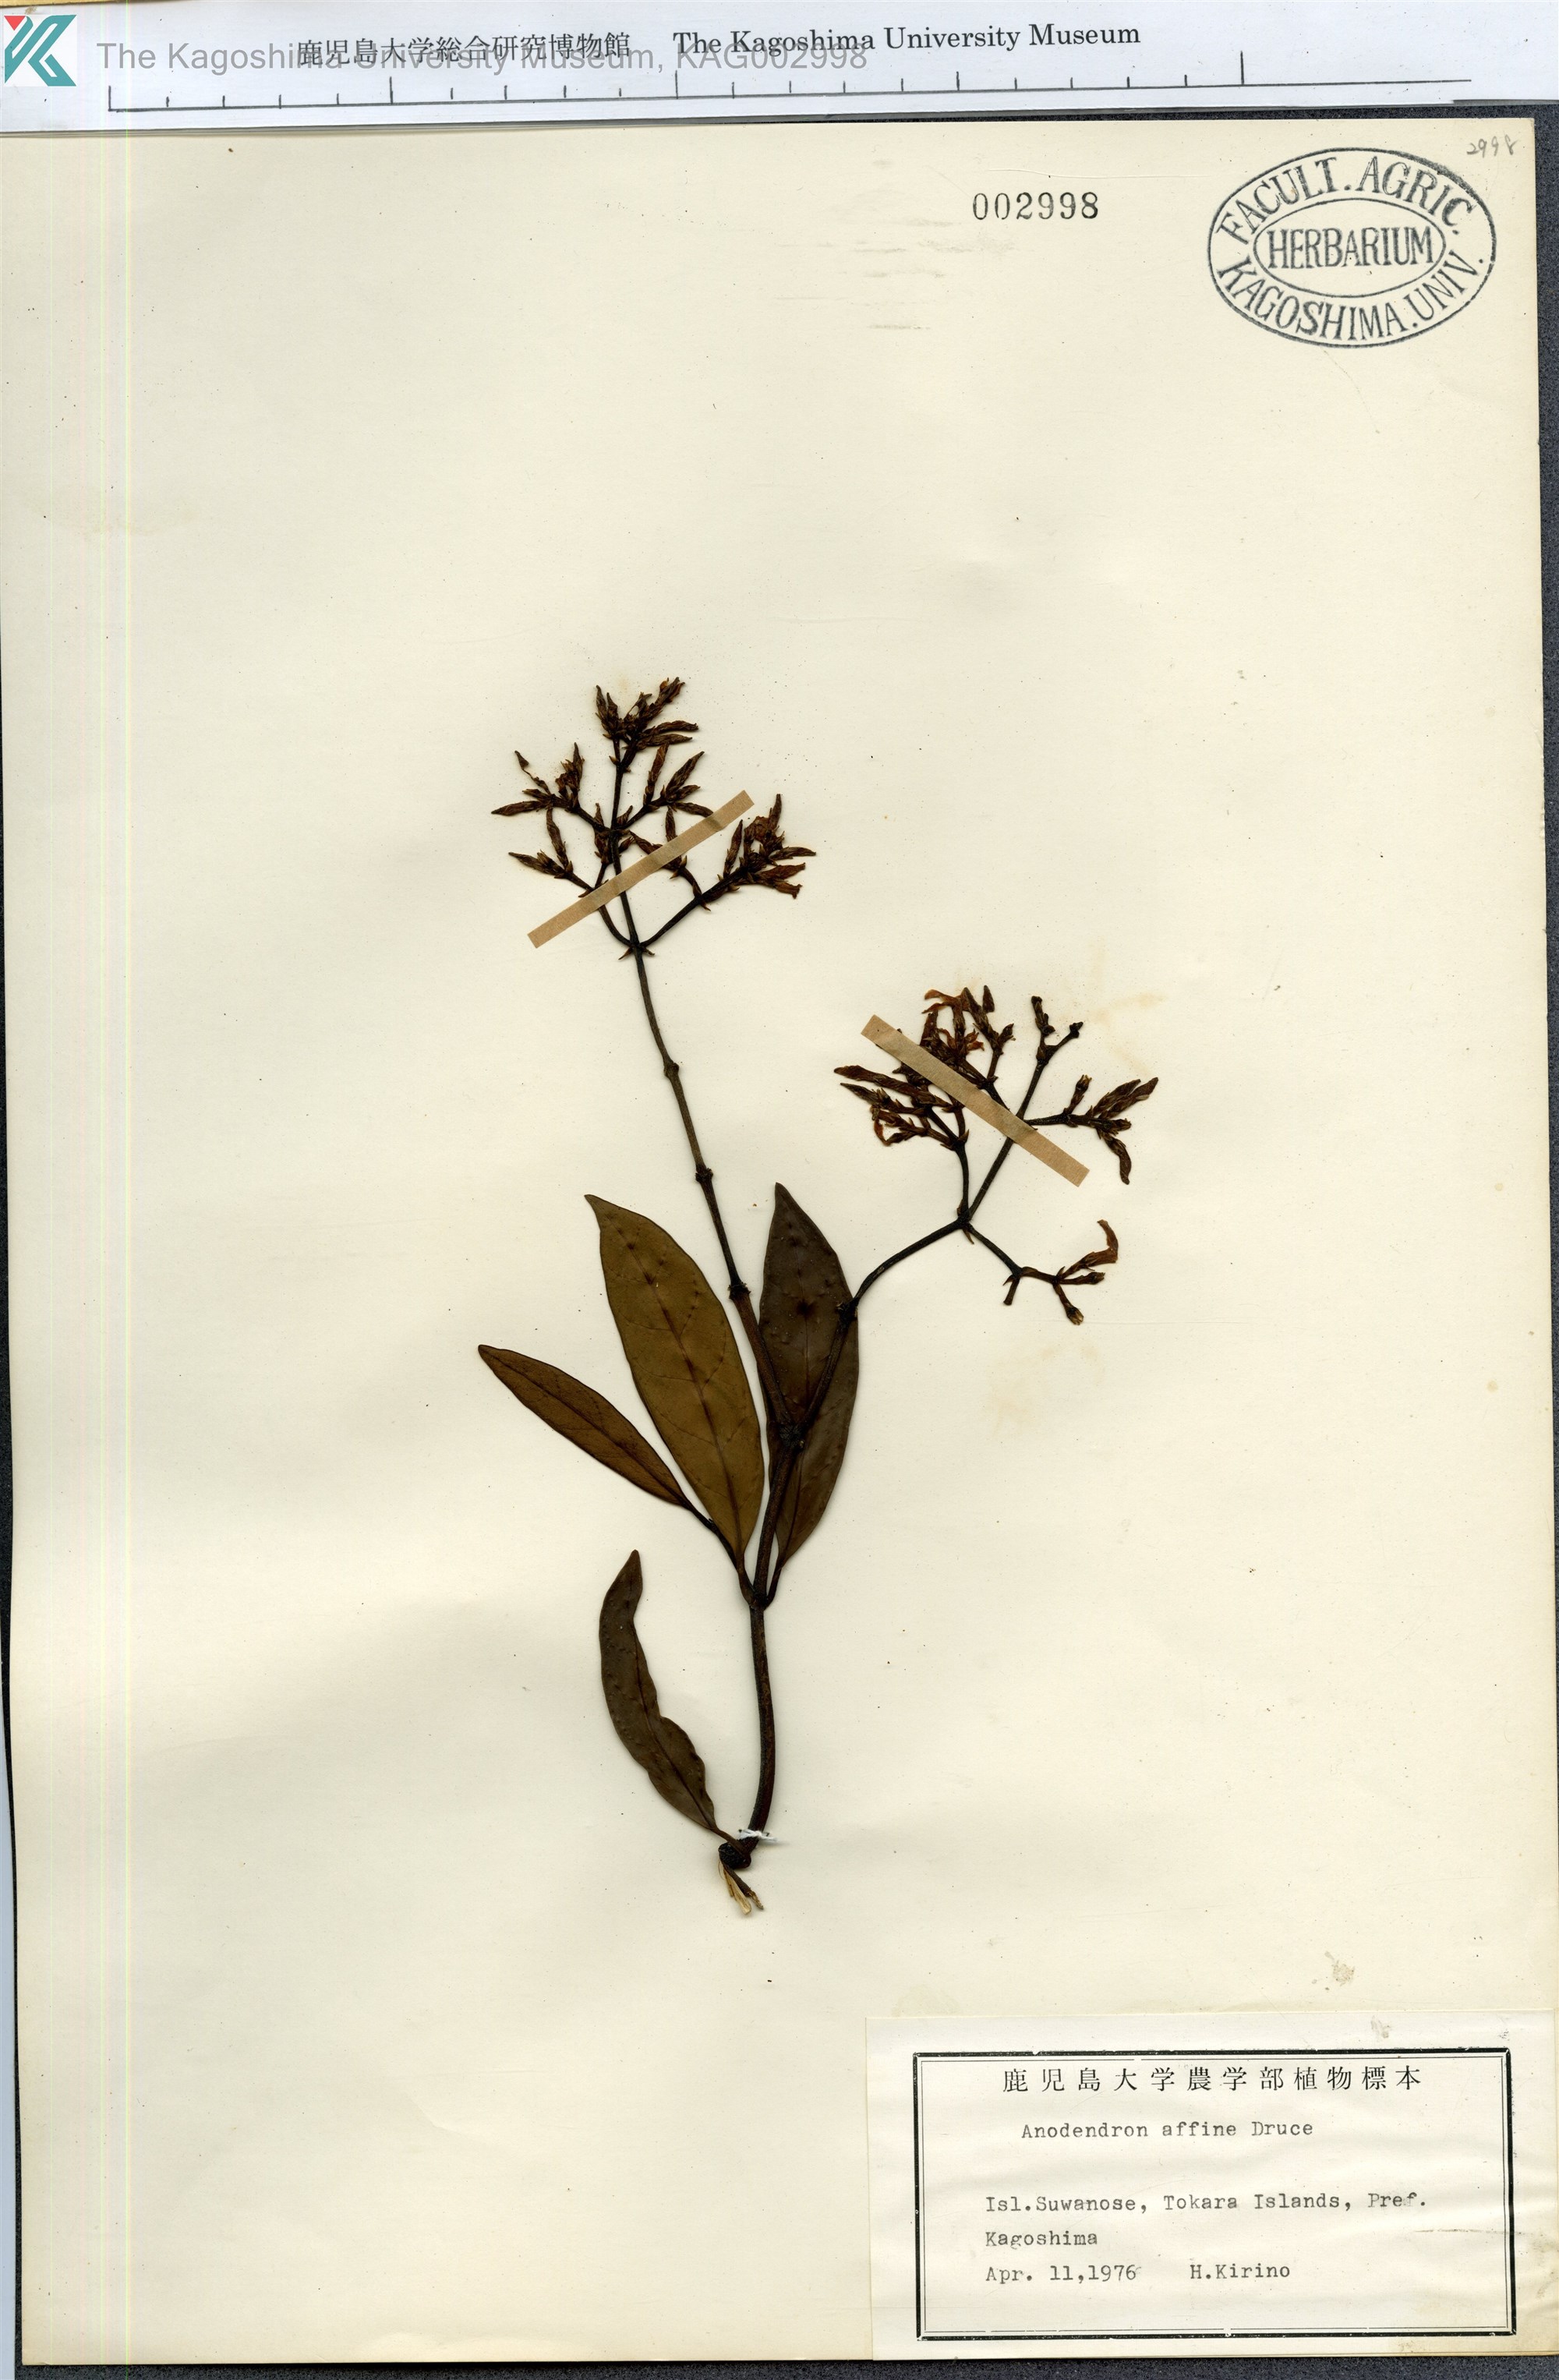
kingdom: Plantae
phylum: Tracheophyta
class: Magnoliopsida
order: Gentianales
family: Apocynaceae
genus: Anodendron
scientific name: Anodendron affine
